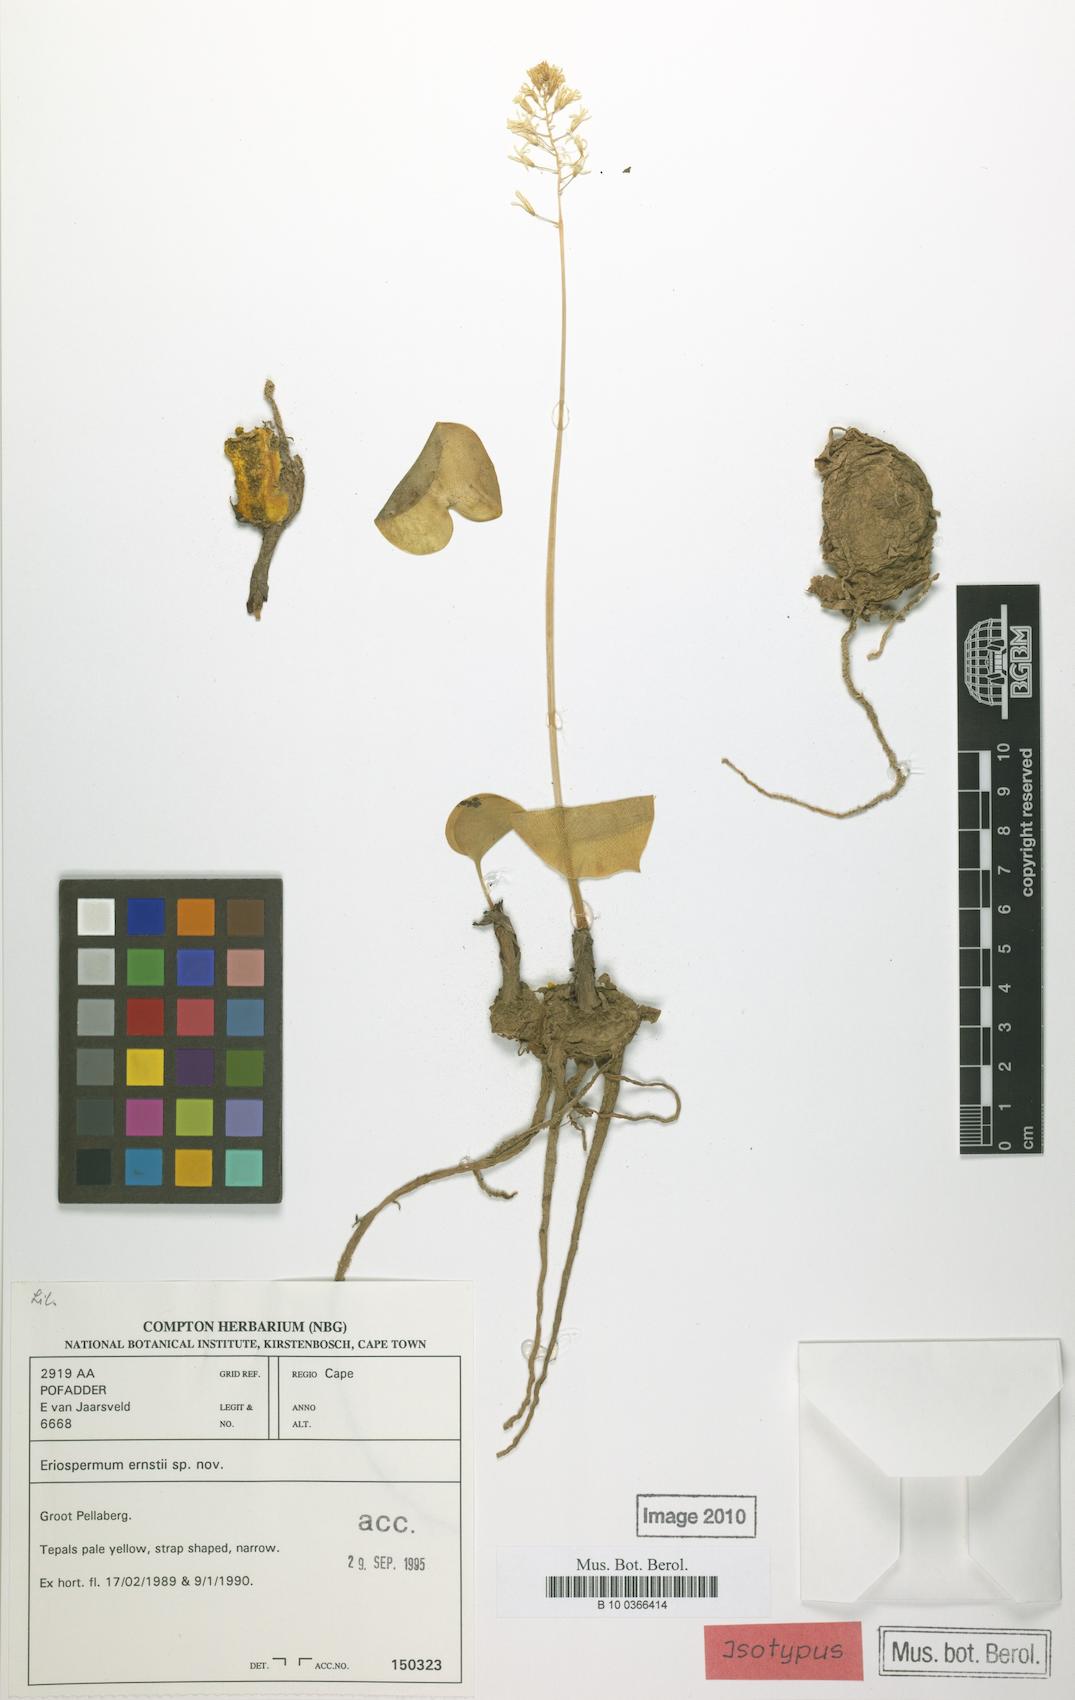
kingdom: Plantae
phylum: Tracheophyta
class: Liliopsida
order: Asparagales
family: Asparagaceae
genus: Eriospermum
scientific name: Eriospermum ernstii
